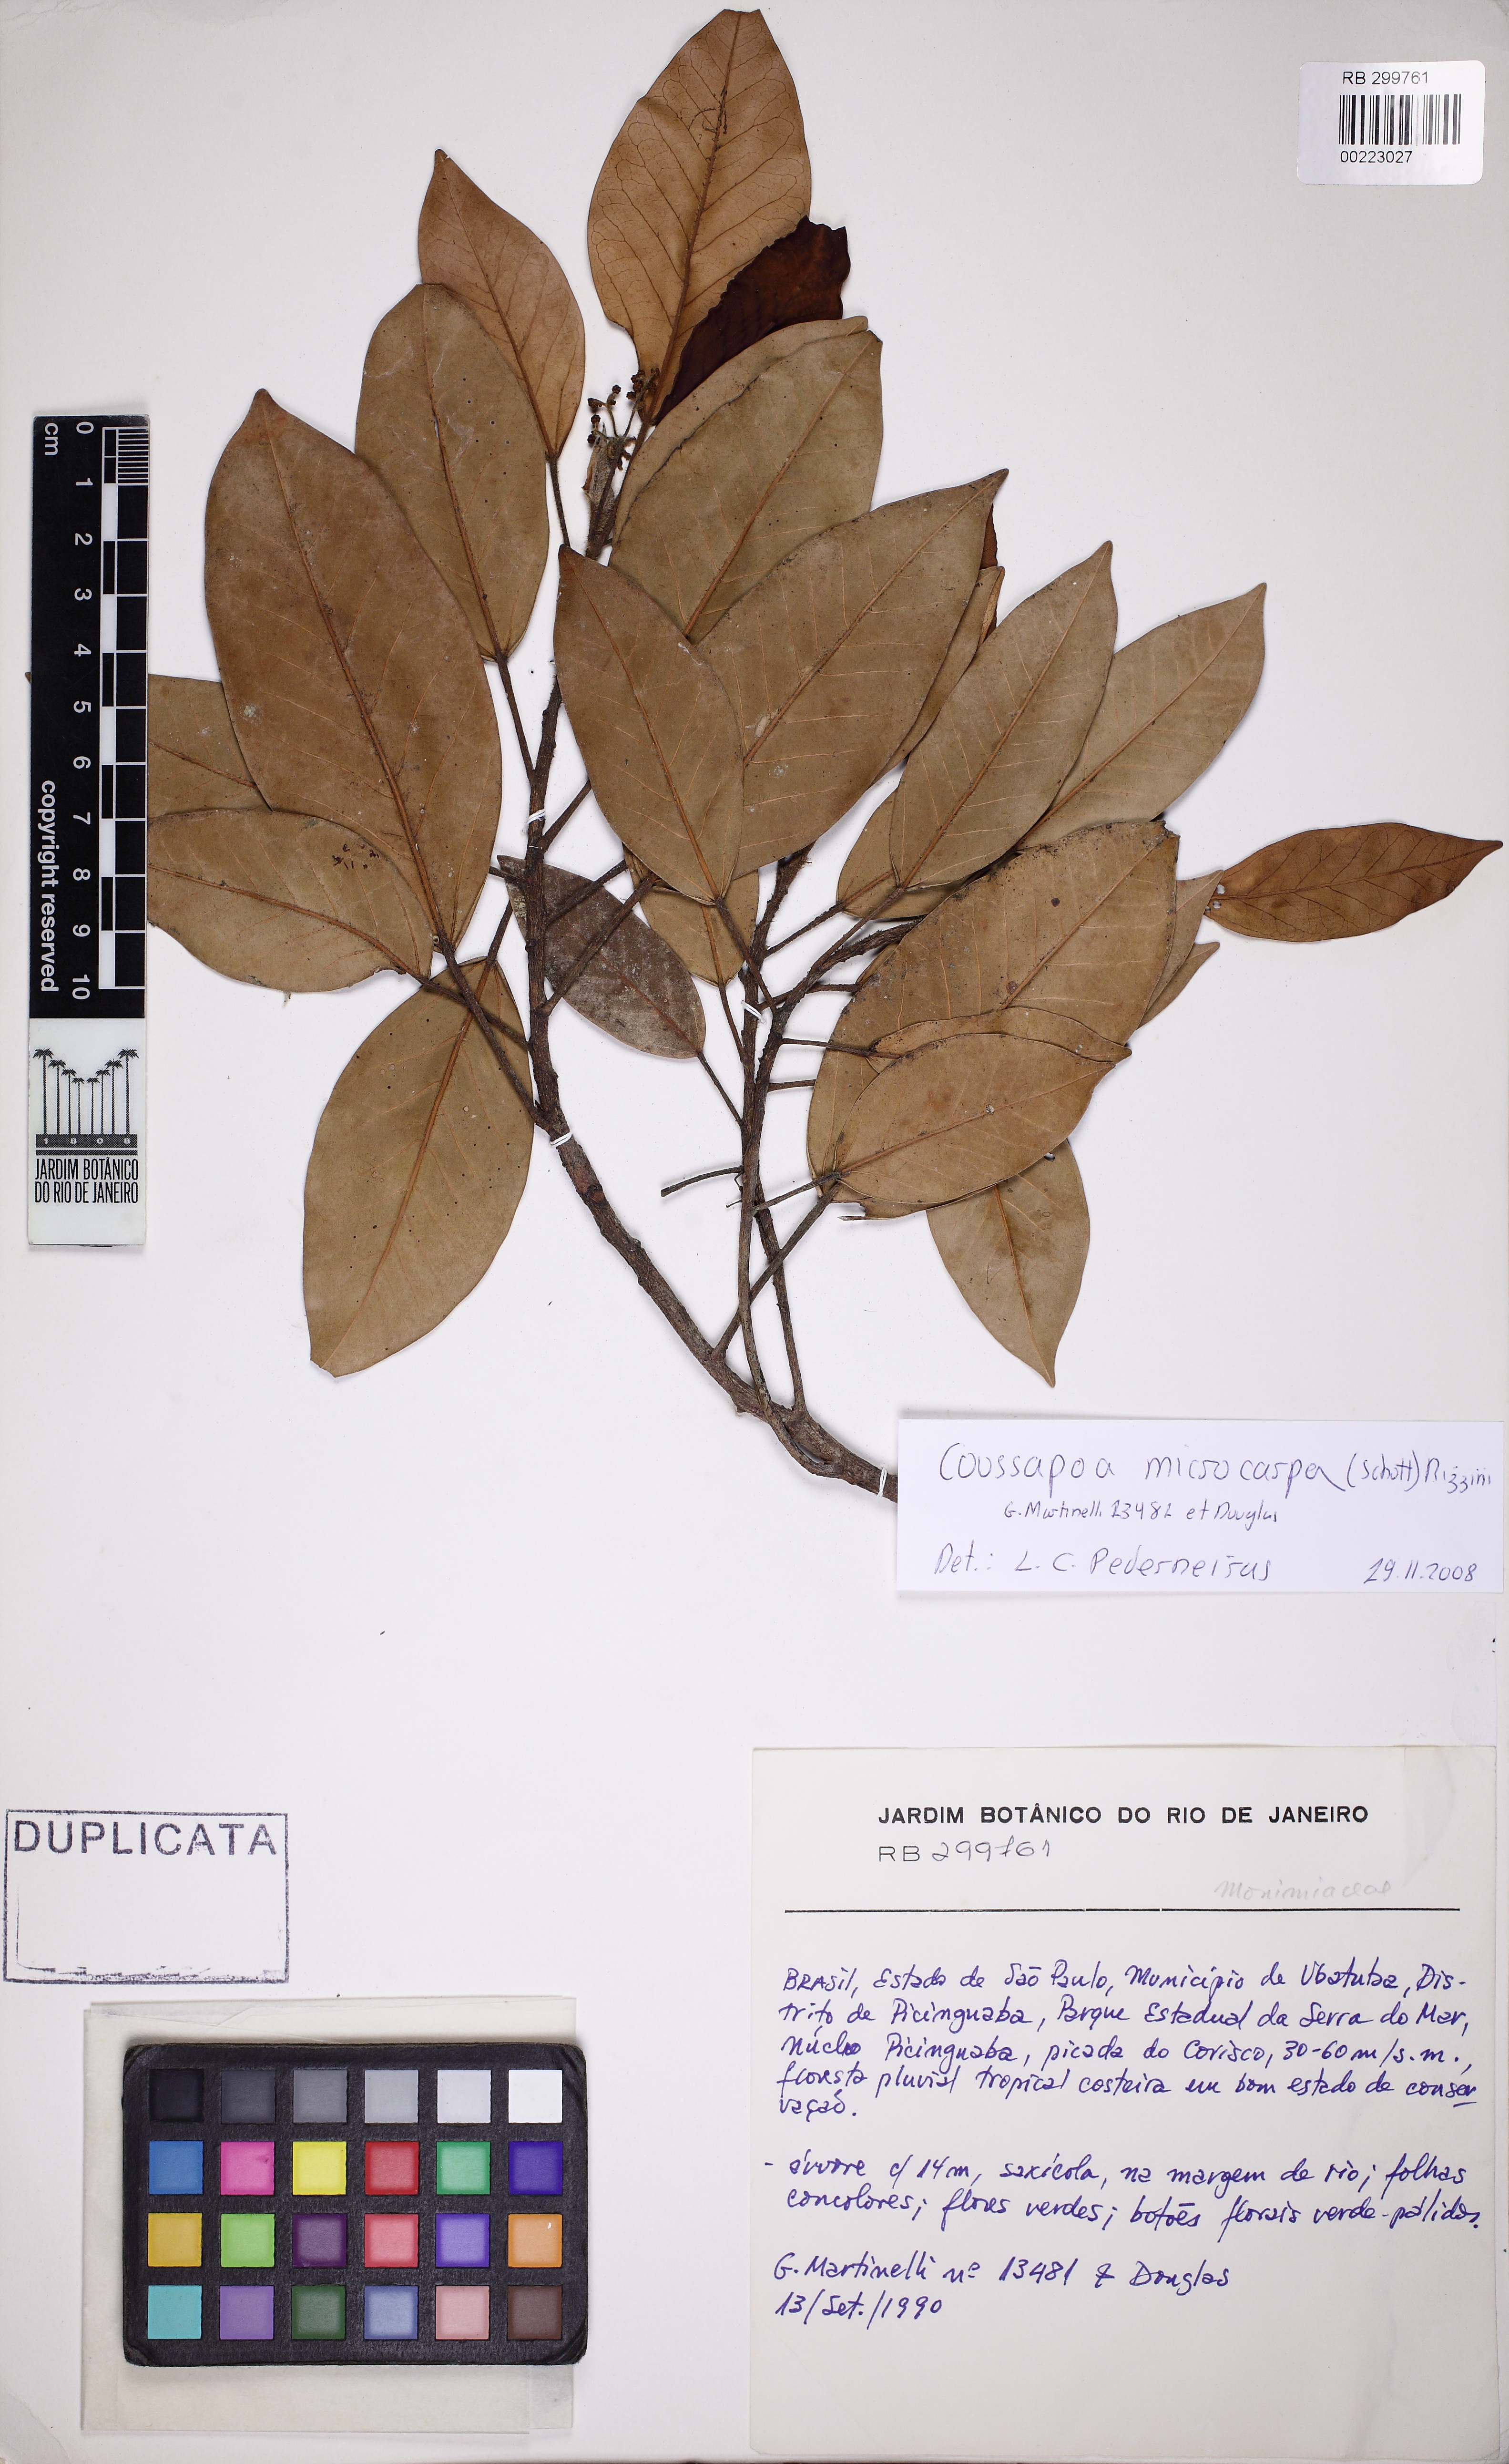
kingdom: Plantae
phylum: Tracheophyta
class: Magnoliopsida
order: Rosales
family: Urticaceae
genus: Coussapoa
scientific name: Coussapoa microcarpa
